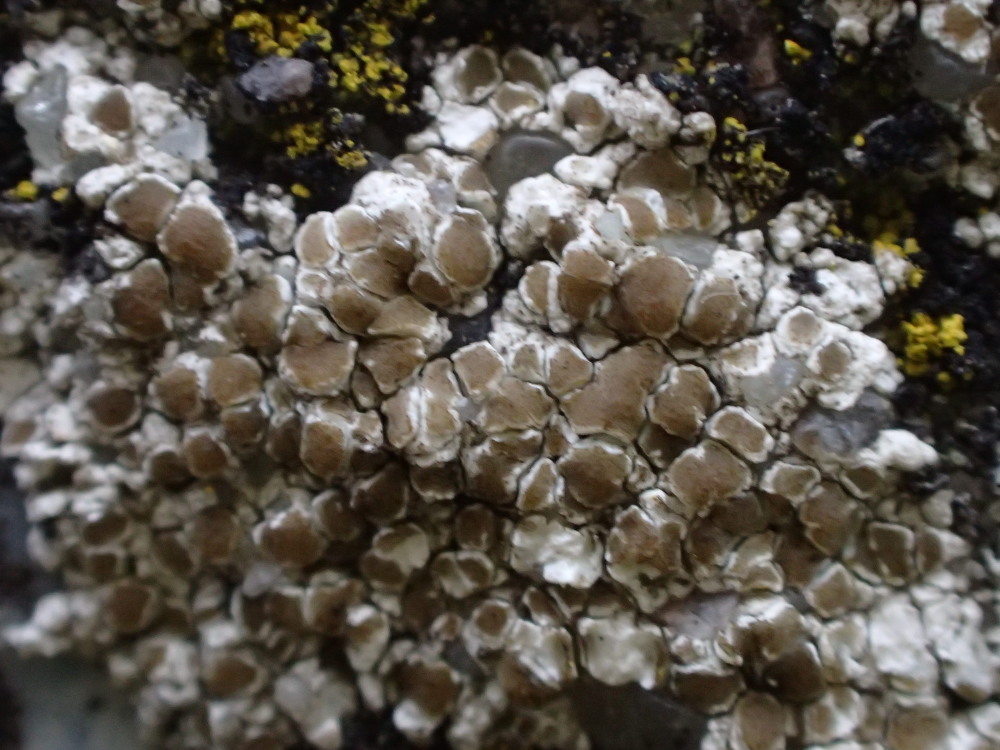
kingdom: Fungi
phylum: Ascomycota
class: Lecanoromycetes
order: Lecanorales
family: Lecanoraceae
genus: Polyozosia
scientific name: Polyozosia albescens
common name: cement-kantskivelav
